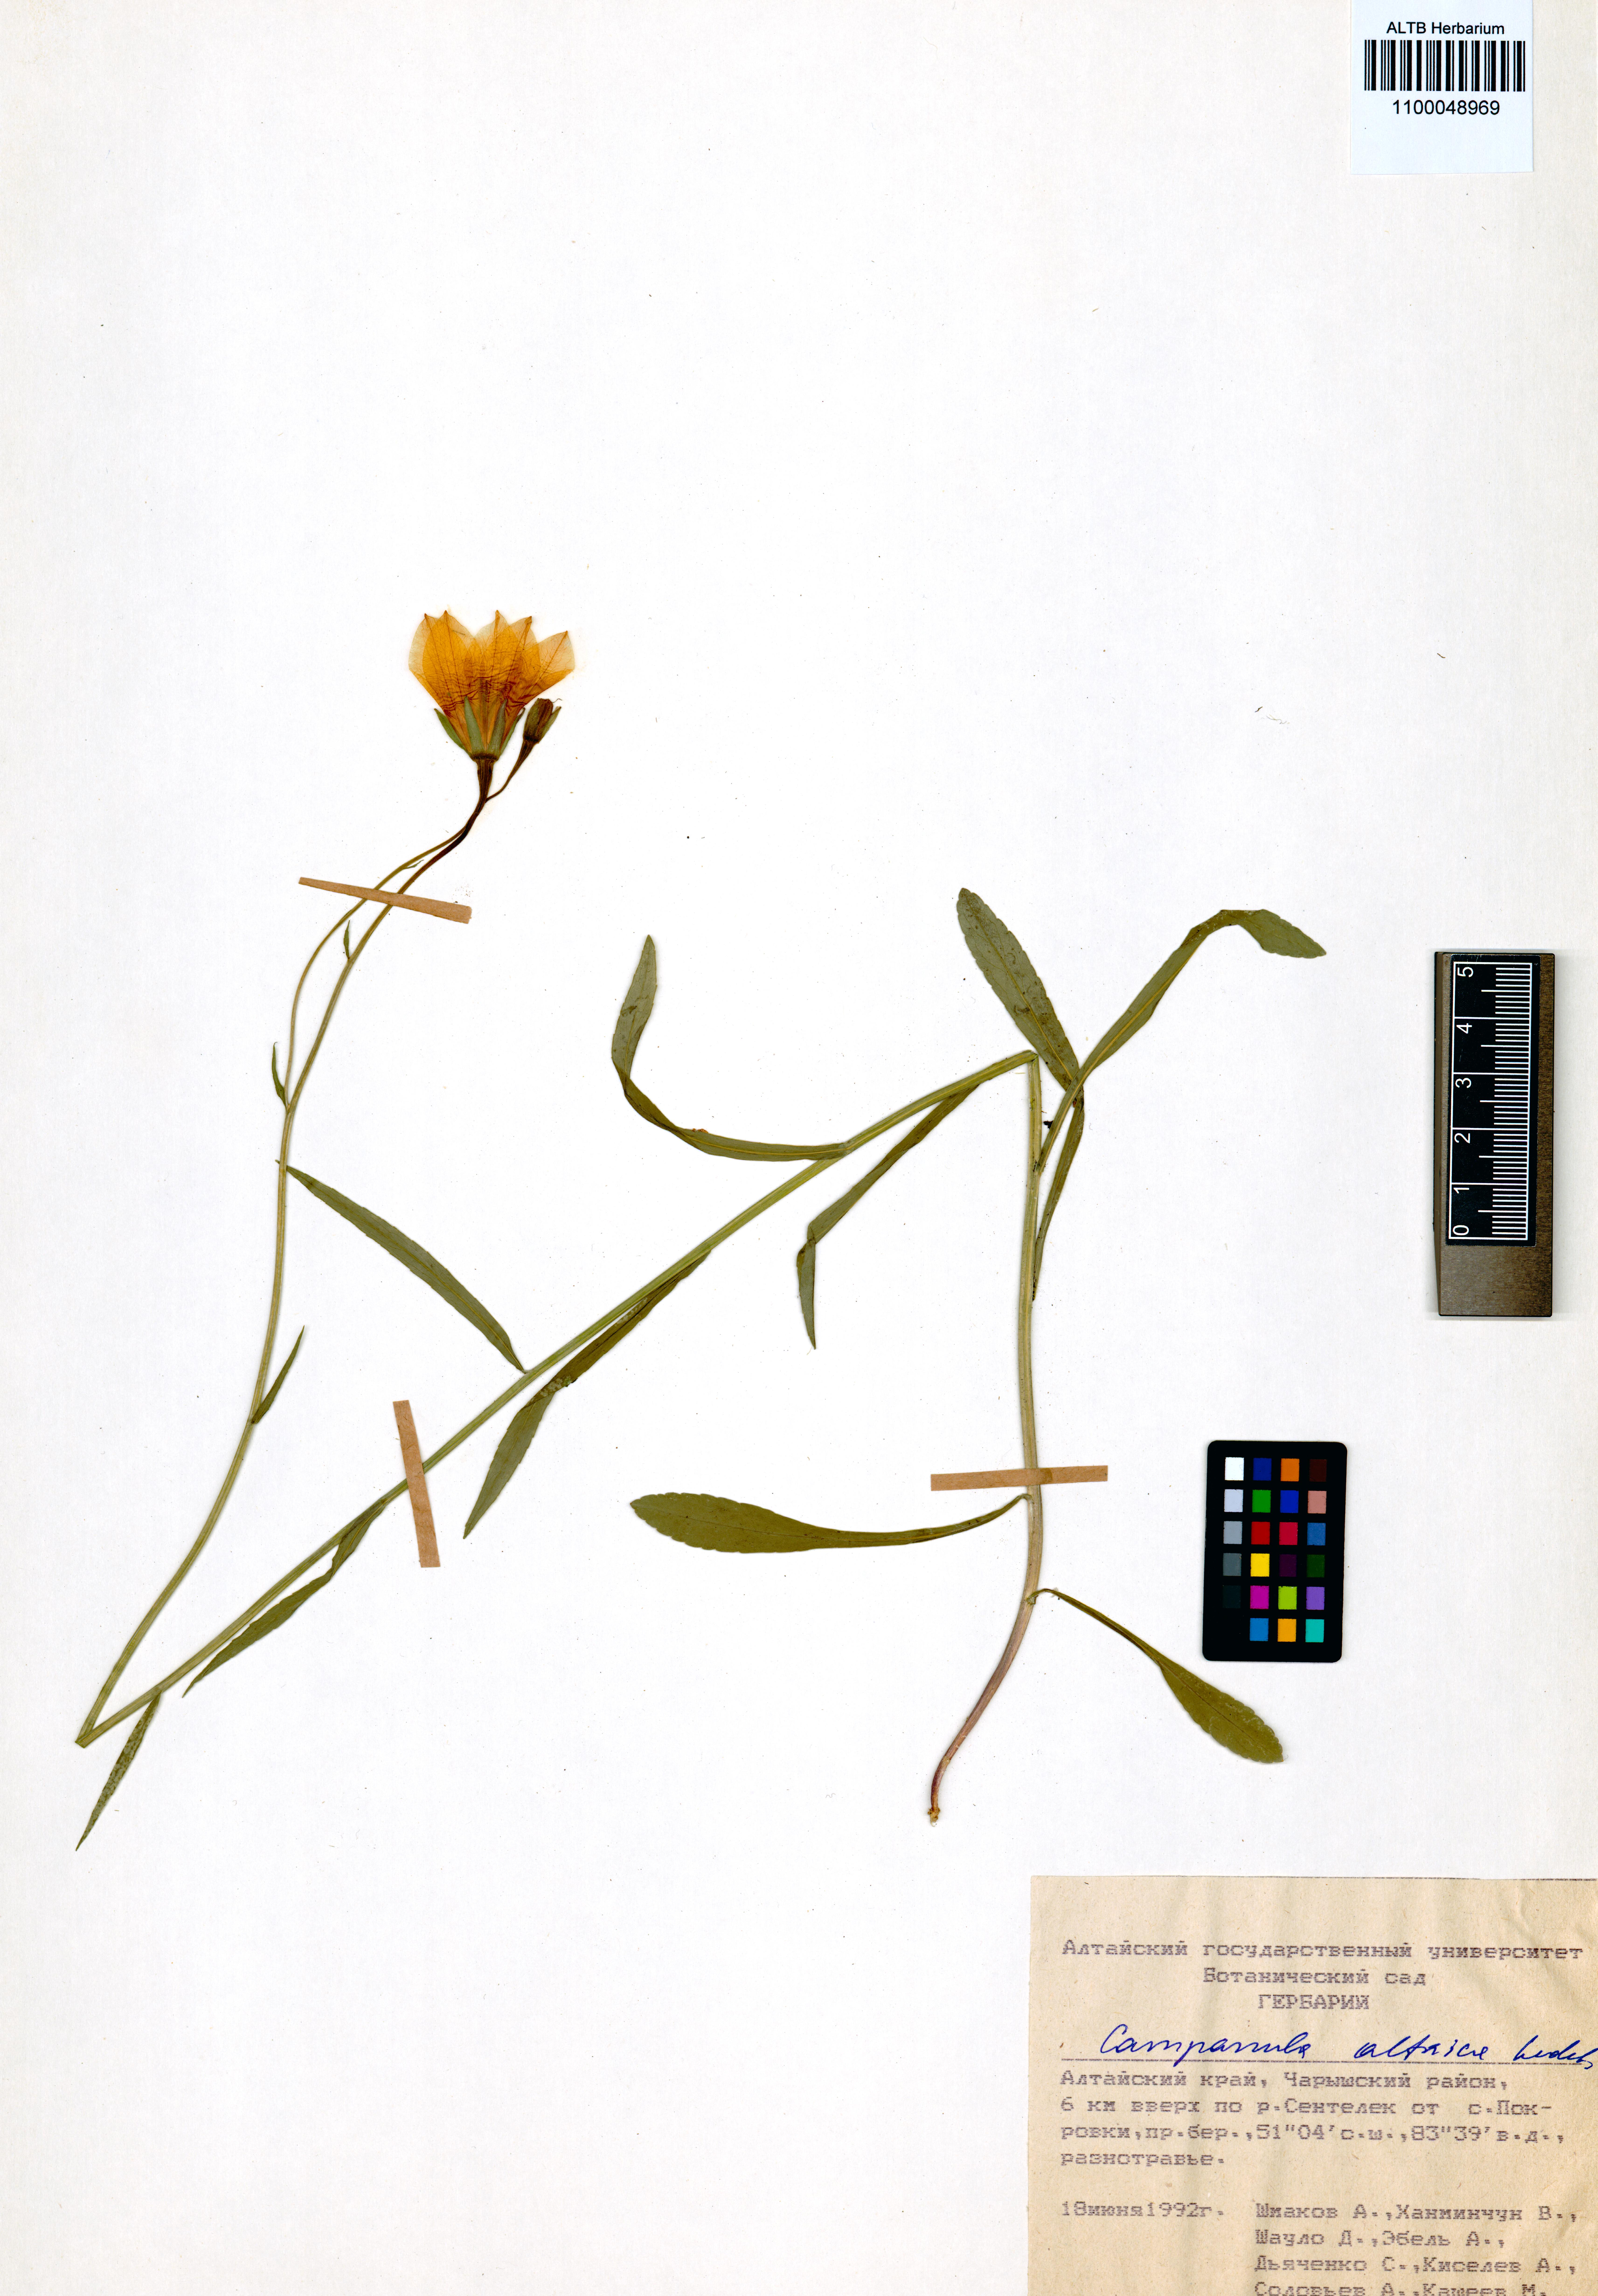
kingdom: Plantae
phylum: Tracheophyta
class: Magnoliopsida
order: Asterales
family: Campanulaceae
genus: Campanula
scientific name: Campanula stevenii
